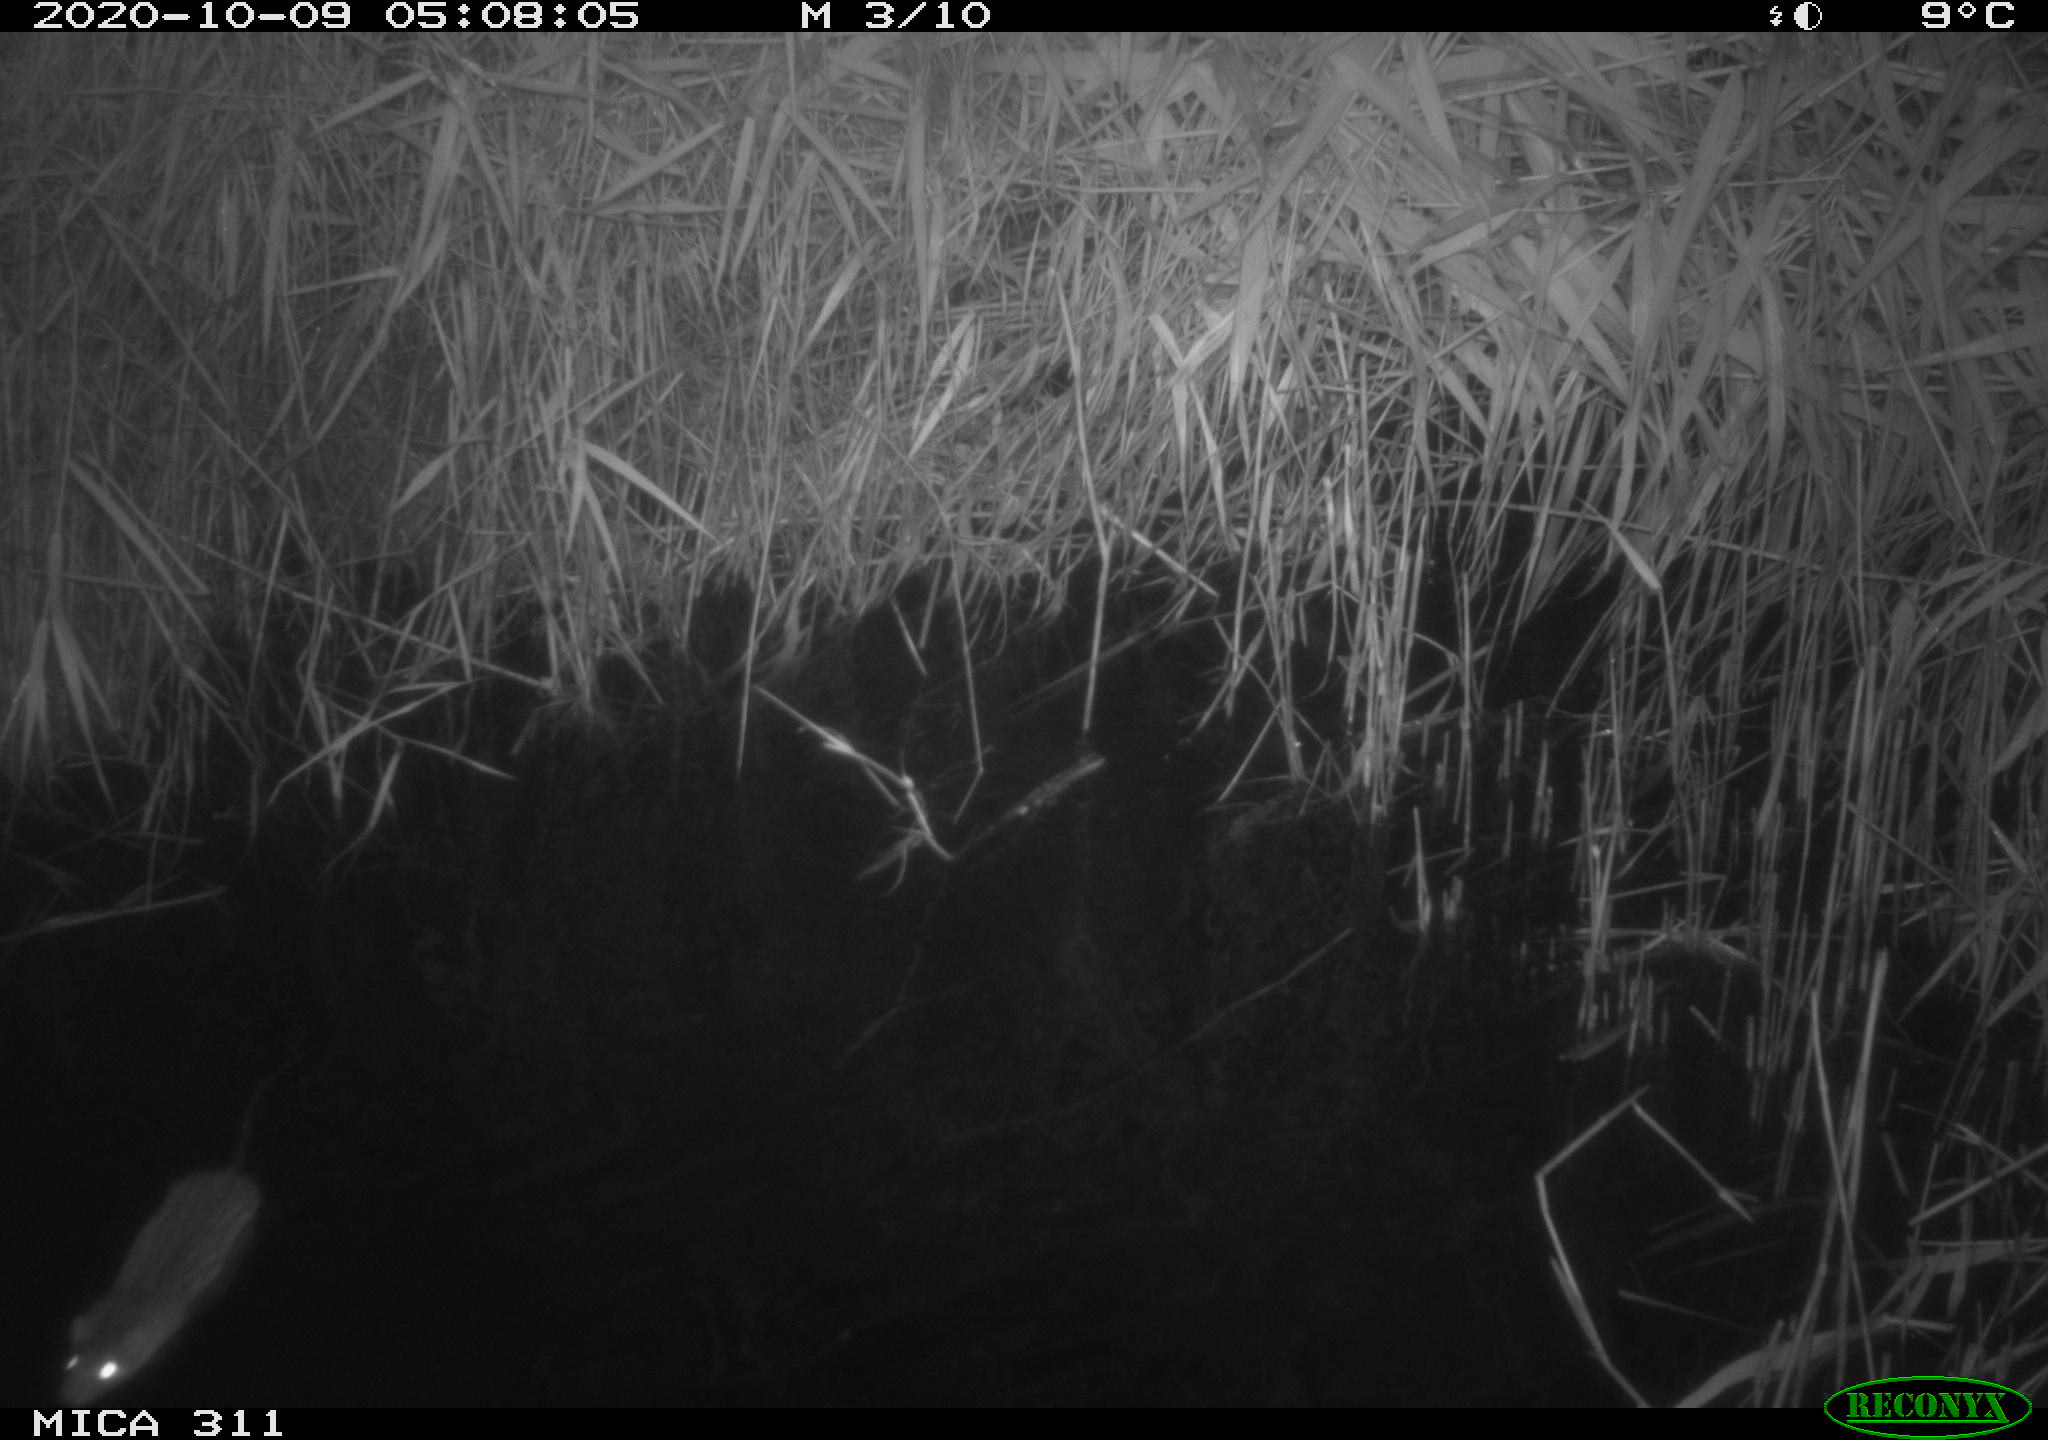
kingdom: Animalia
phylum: Chordata
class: Mammalia
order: Rodentia
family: Muridae
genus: Rattus
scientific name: Rattus norvegicus
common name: Brown rat
